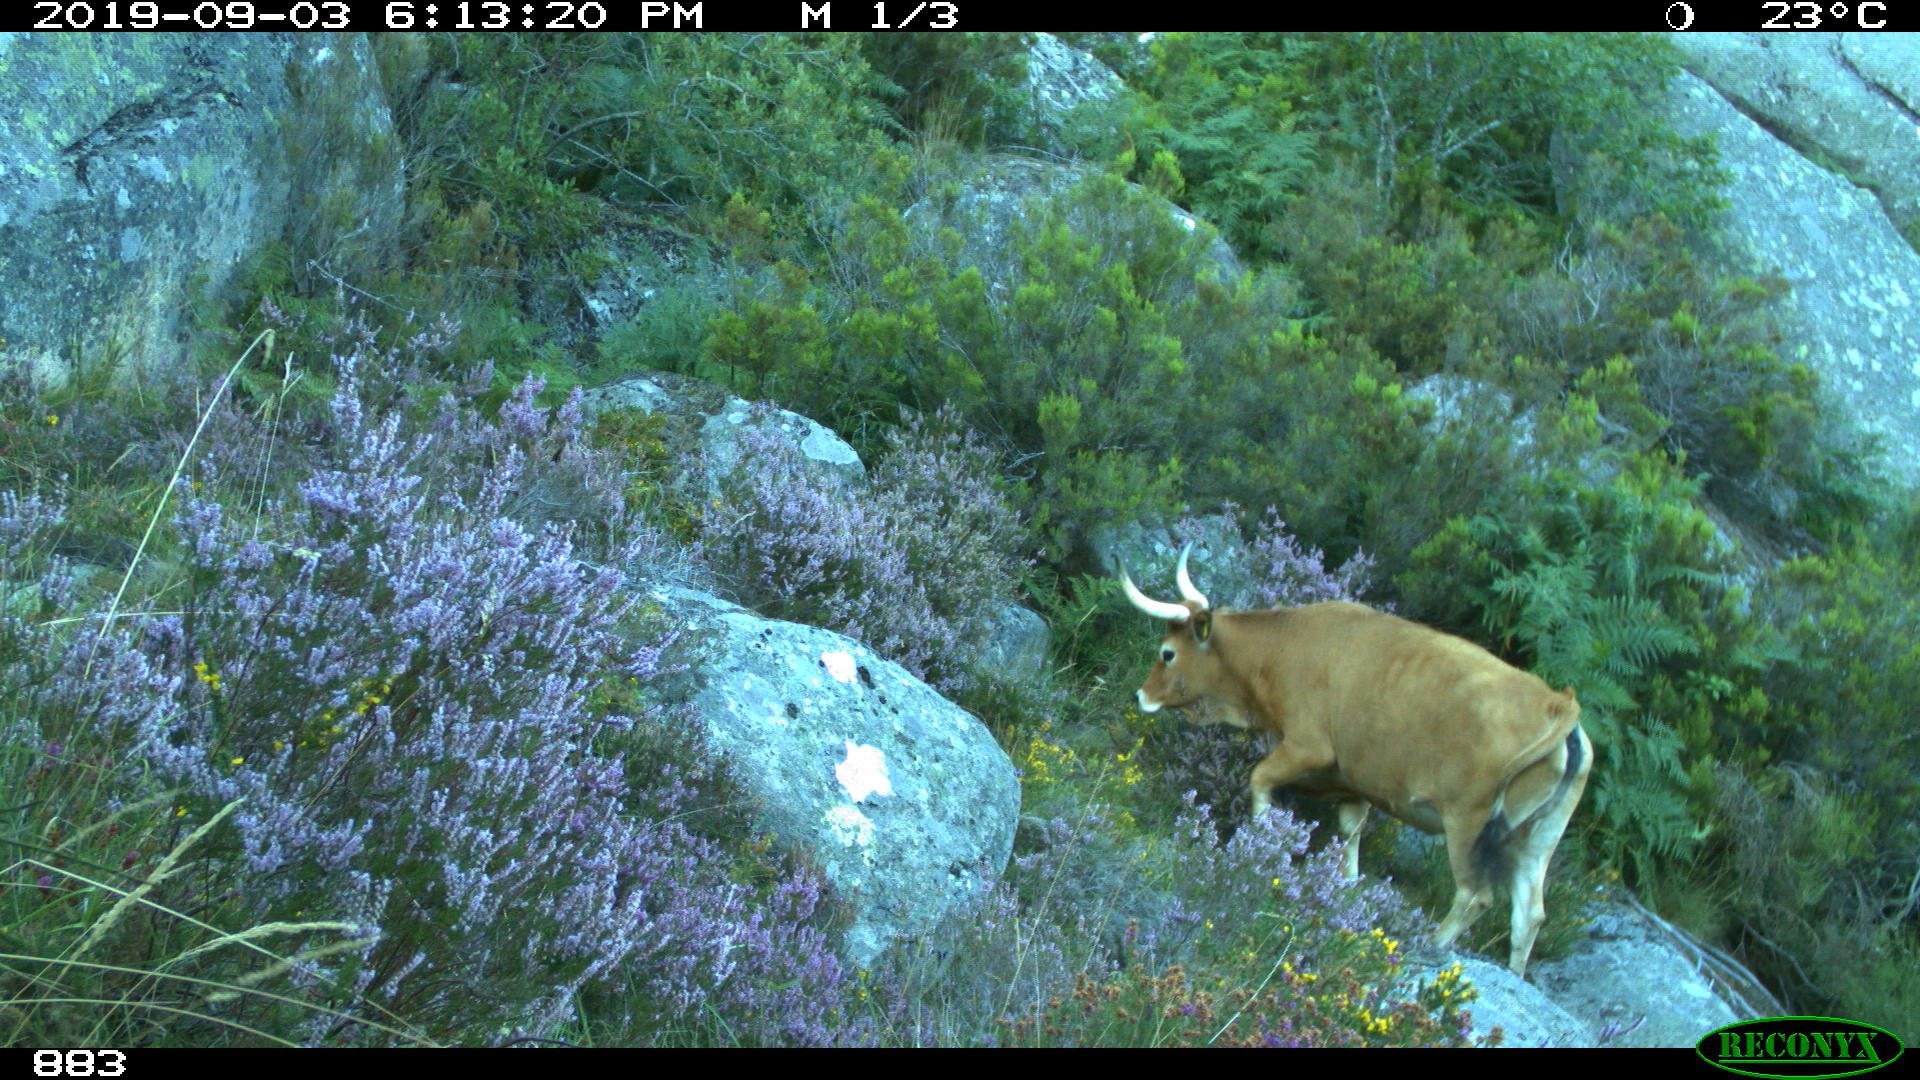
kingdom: Animalia
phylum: Chordata
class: Mammalia
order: Artiodactyla
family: Bovidae
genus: Bos
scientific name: Bos taurus
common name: Domesticated cattle
